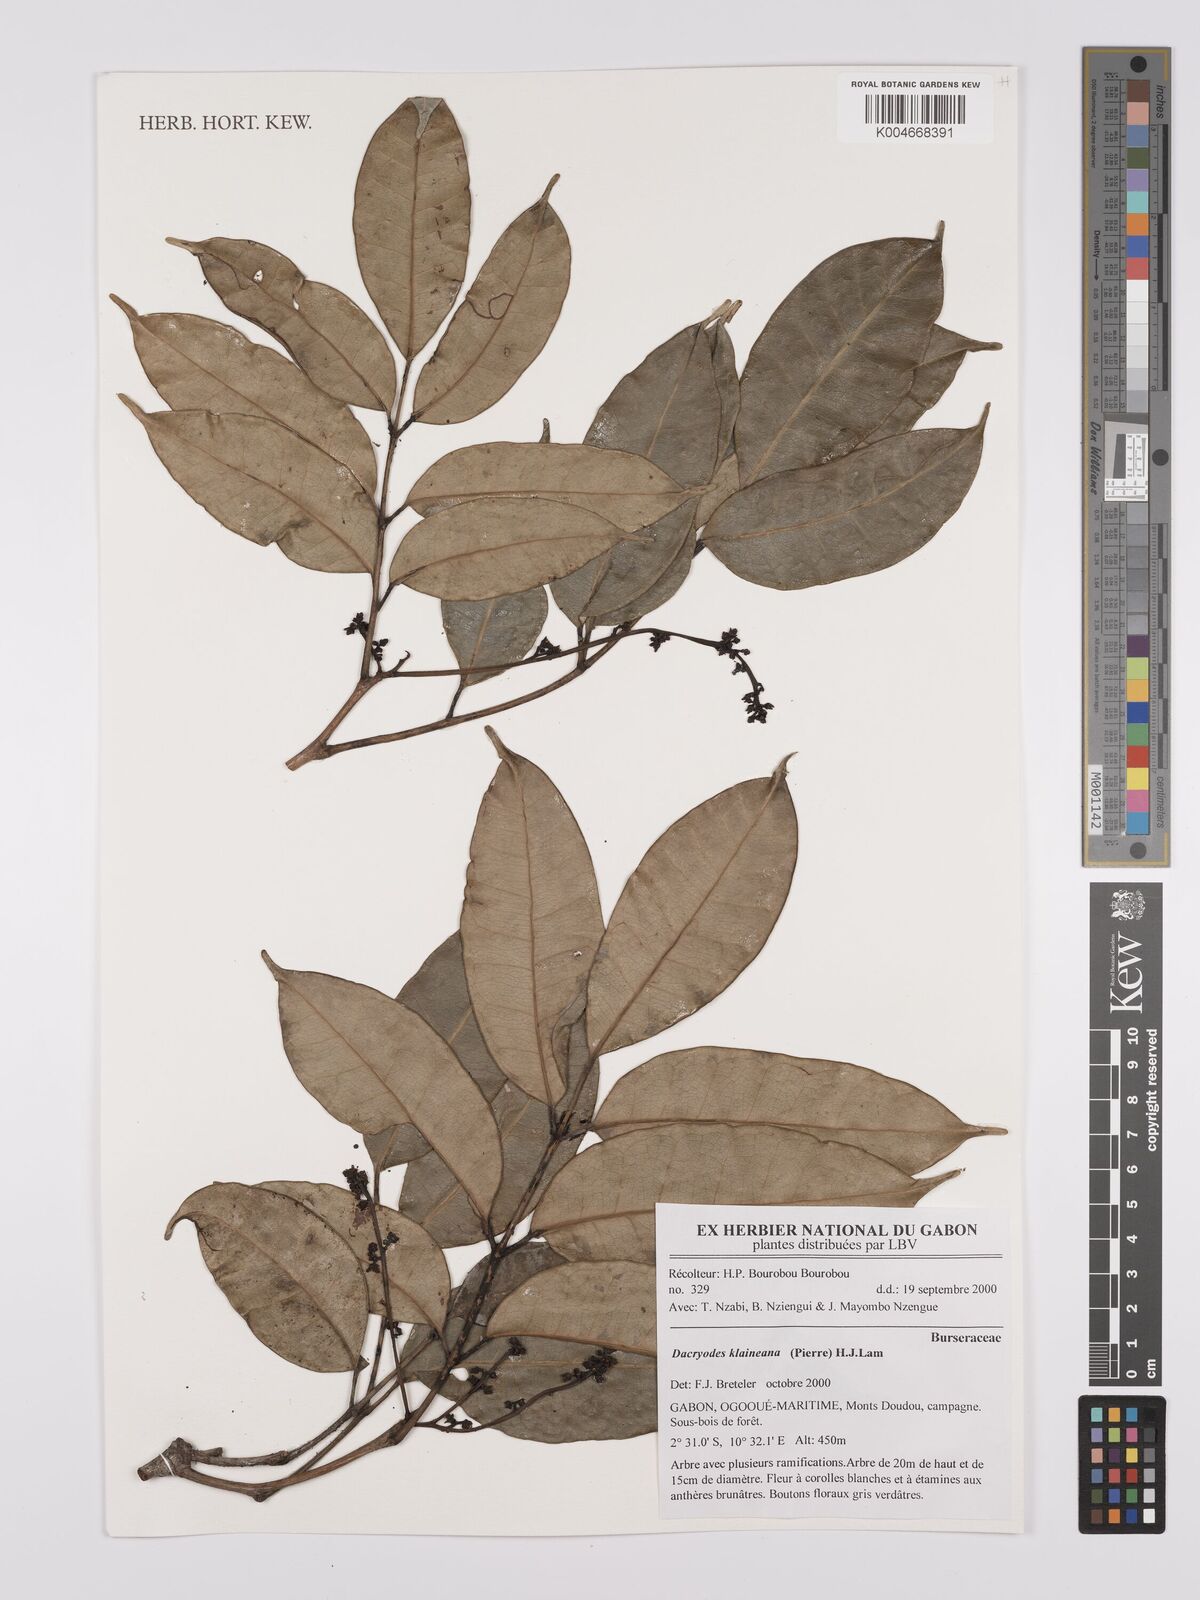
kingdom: Plantae
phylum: Tracheophyta
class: Magnoliopsida
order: Sapindales
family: Burseraceae
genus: Pachylobus
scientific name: Pachylobus klaineana
